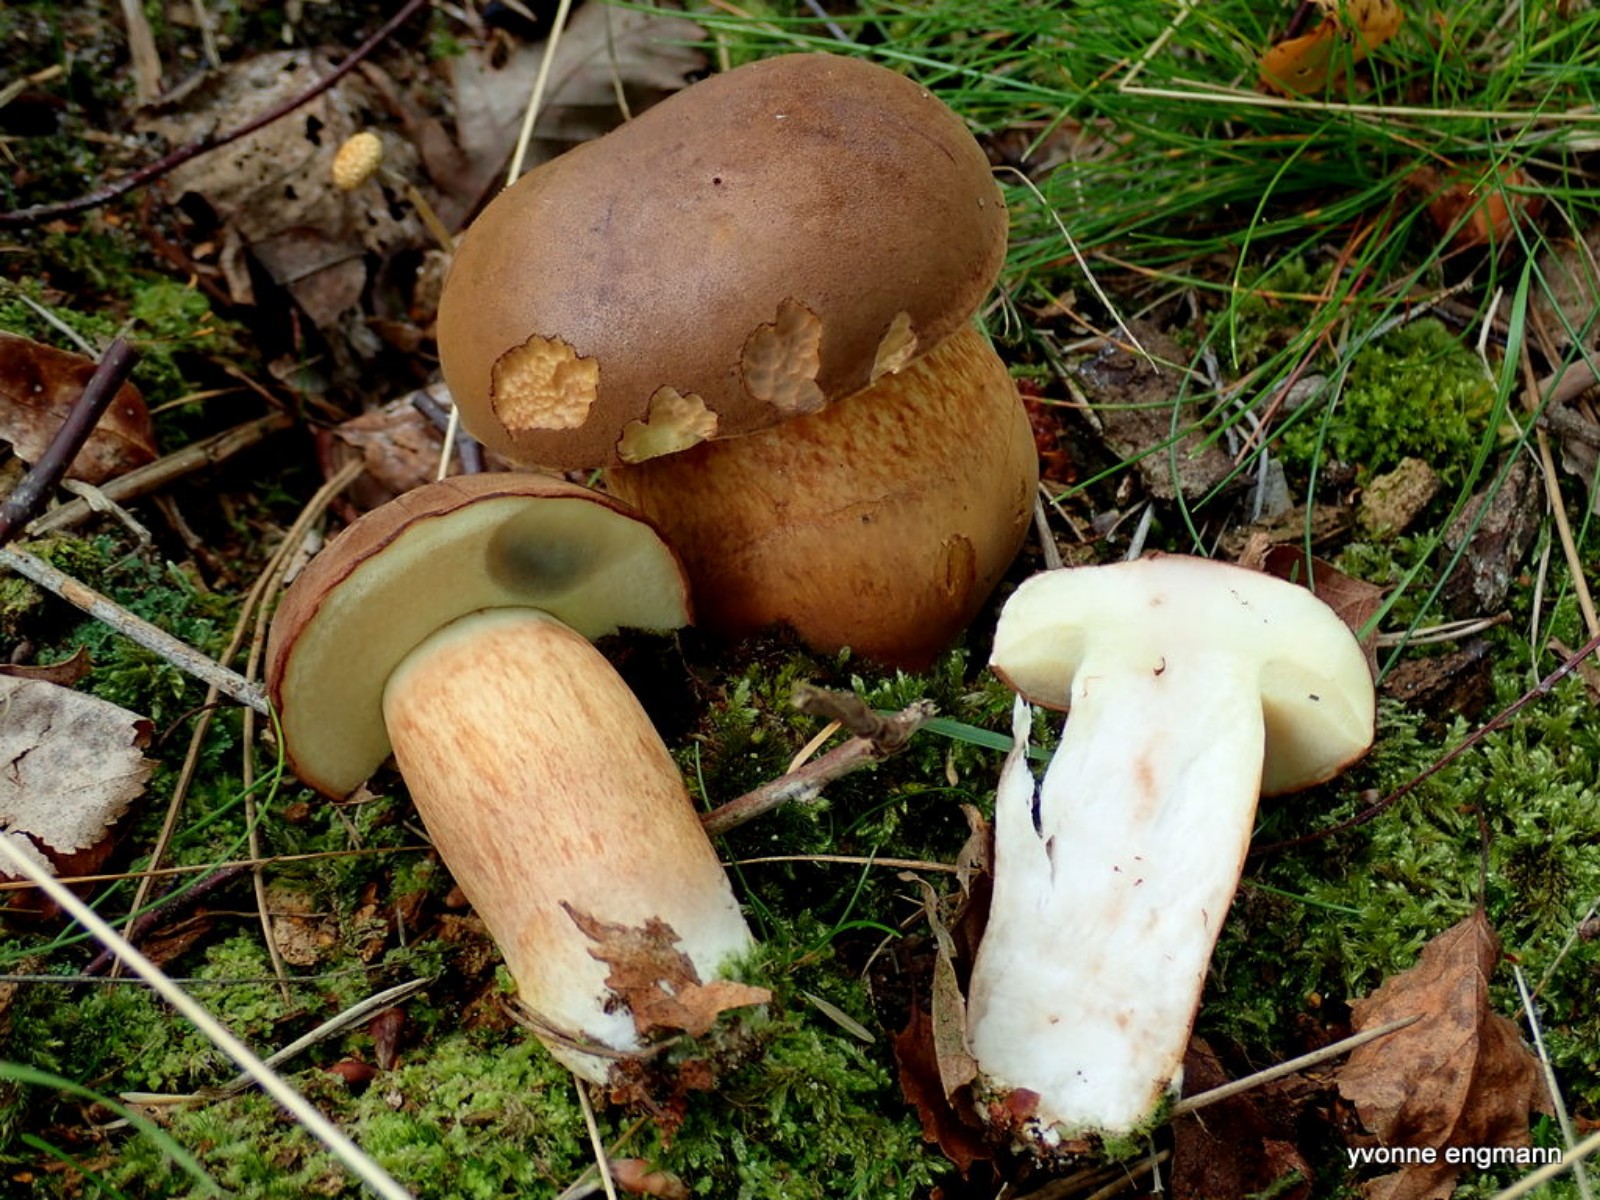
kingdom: Fungi
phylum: Basidiomycota
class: Agaricomycetes
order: Boletales
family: Boletaceae
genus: Imleria
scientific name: Imleria badia
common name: brunstokket rørhat
